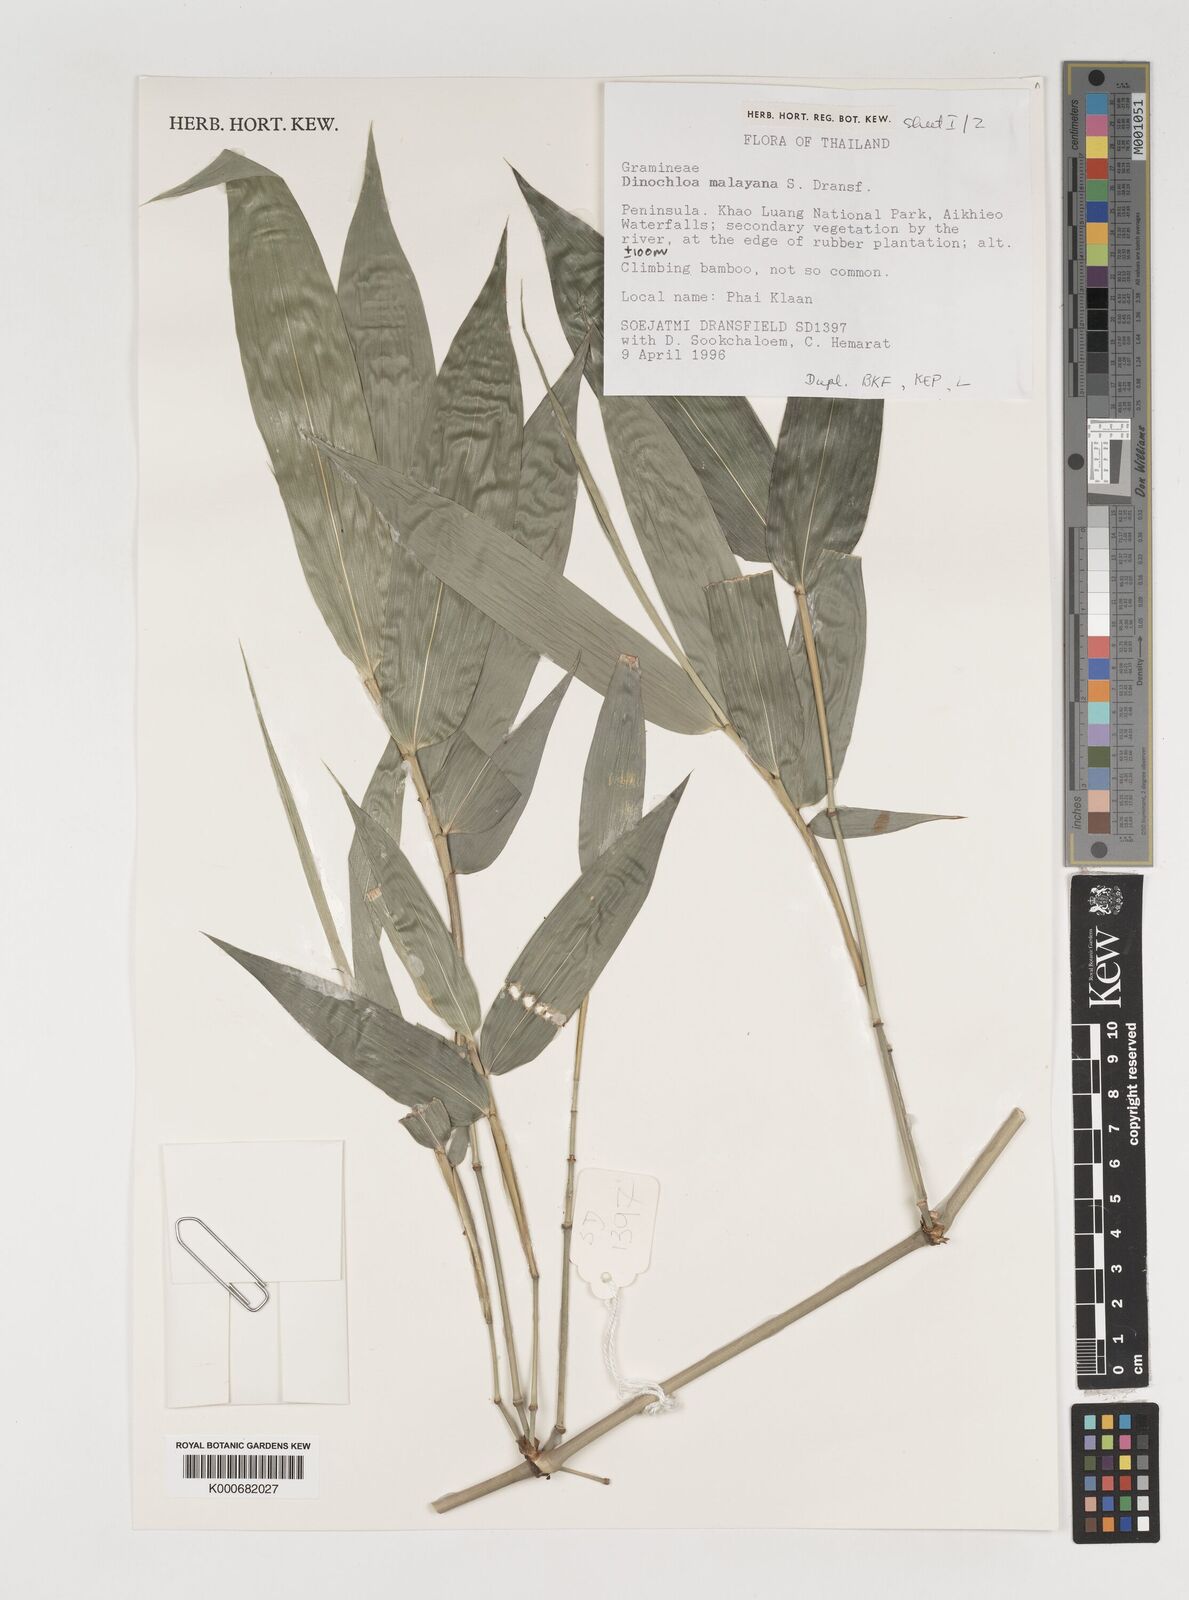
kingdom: Plantae
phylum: Tracheophyta
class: Liliopsida
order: Poales
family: Poaceae
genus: Dinochloa
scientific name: Dinochloa malayana
